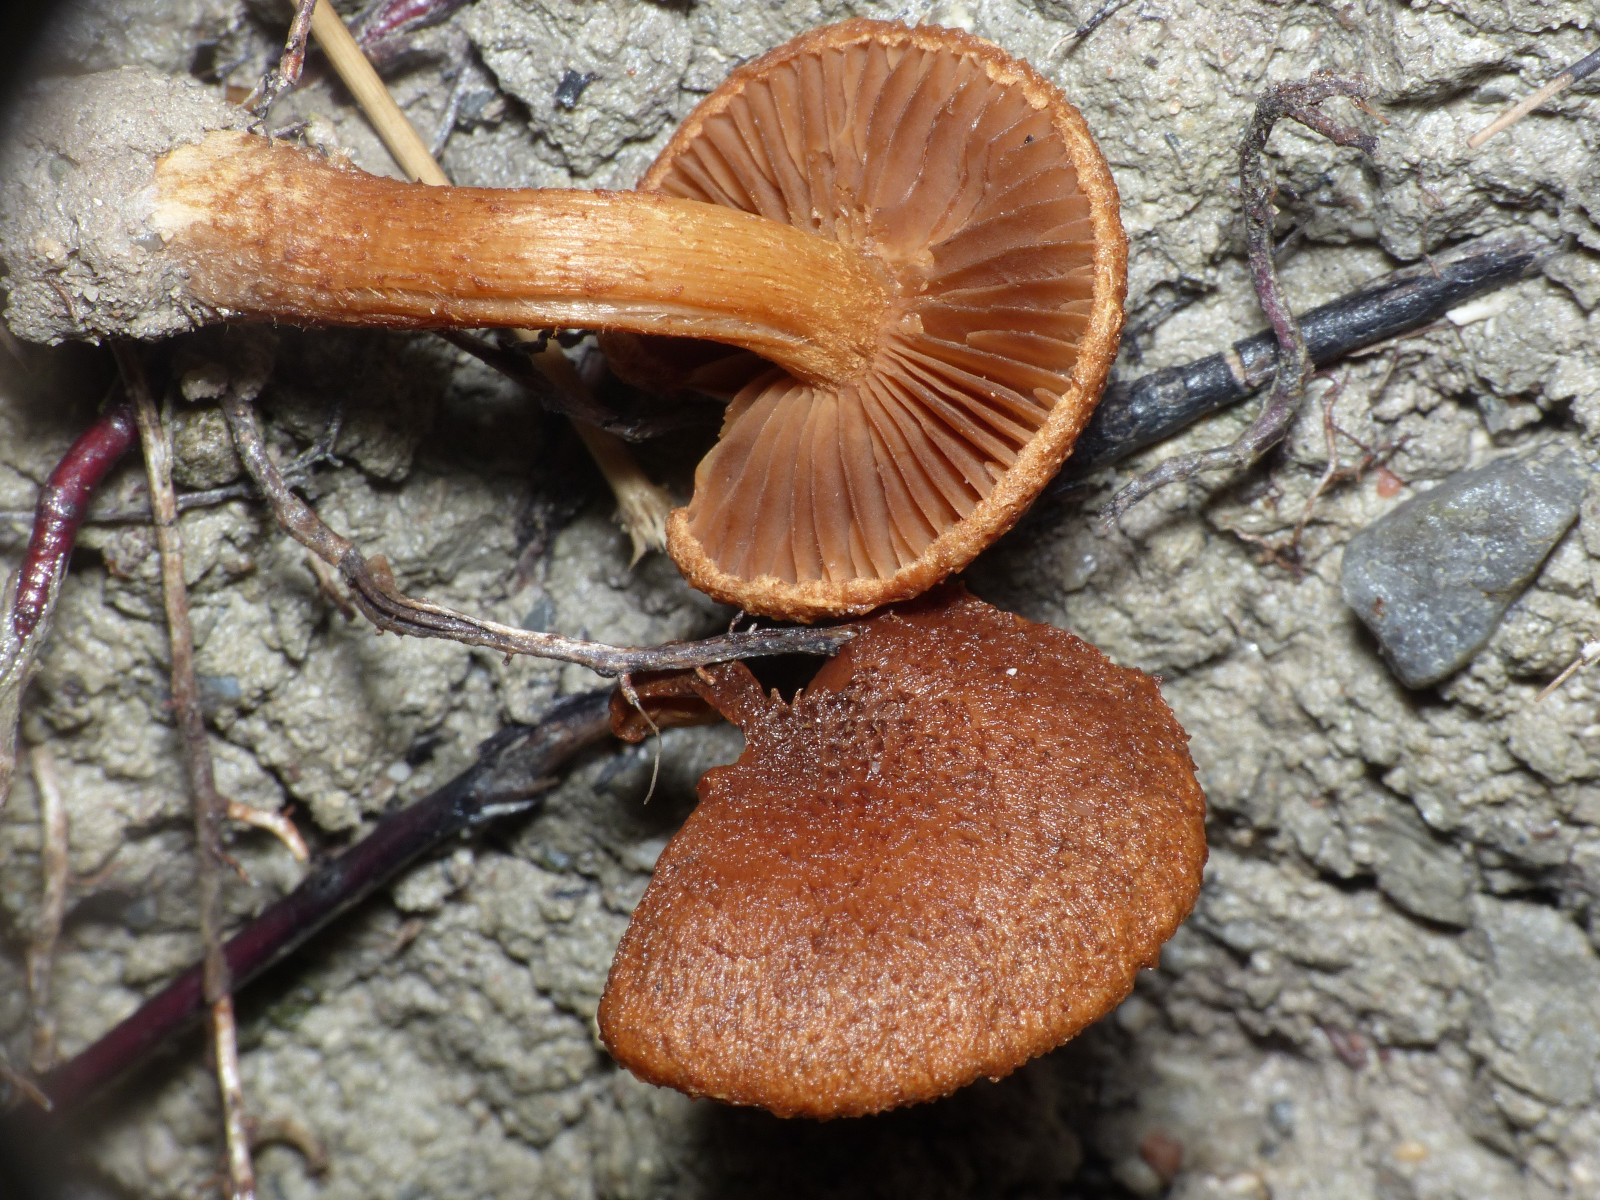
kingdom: Fungi
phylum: Basidiomycota
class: Agaricomycetes
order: Agaricales
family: Inocybaceae
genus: Mallocybe
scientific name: Mallocybe
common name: Trævlhat
